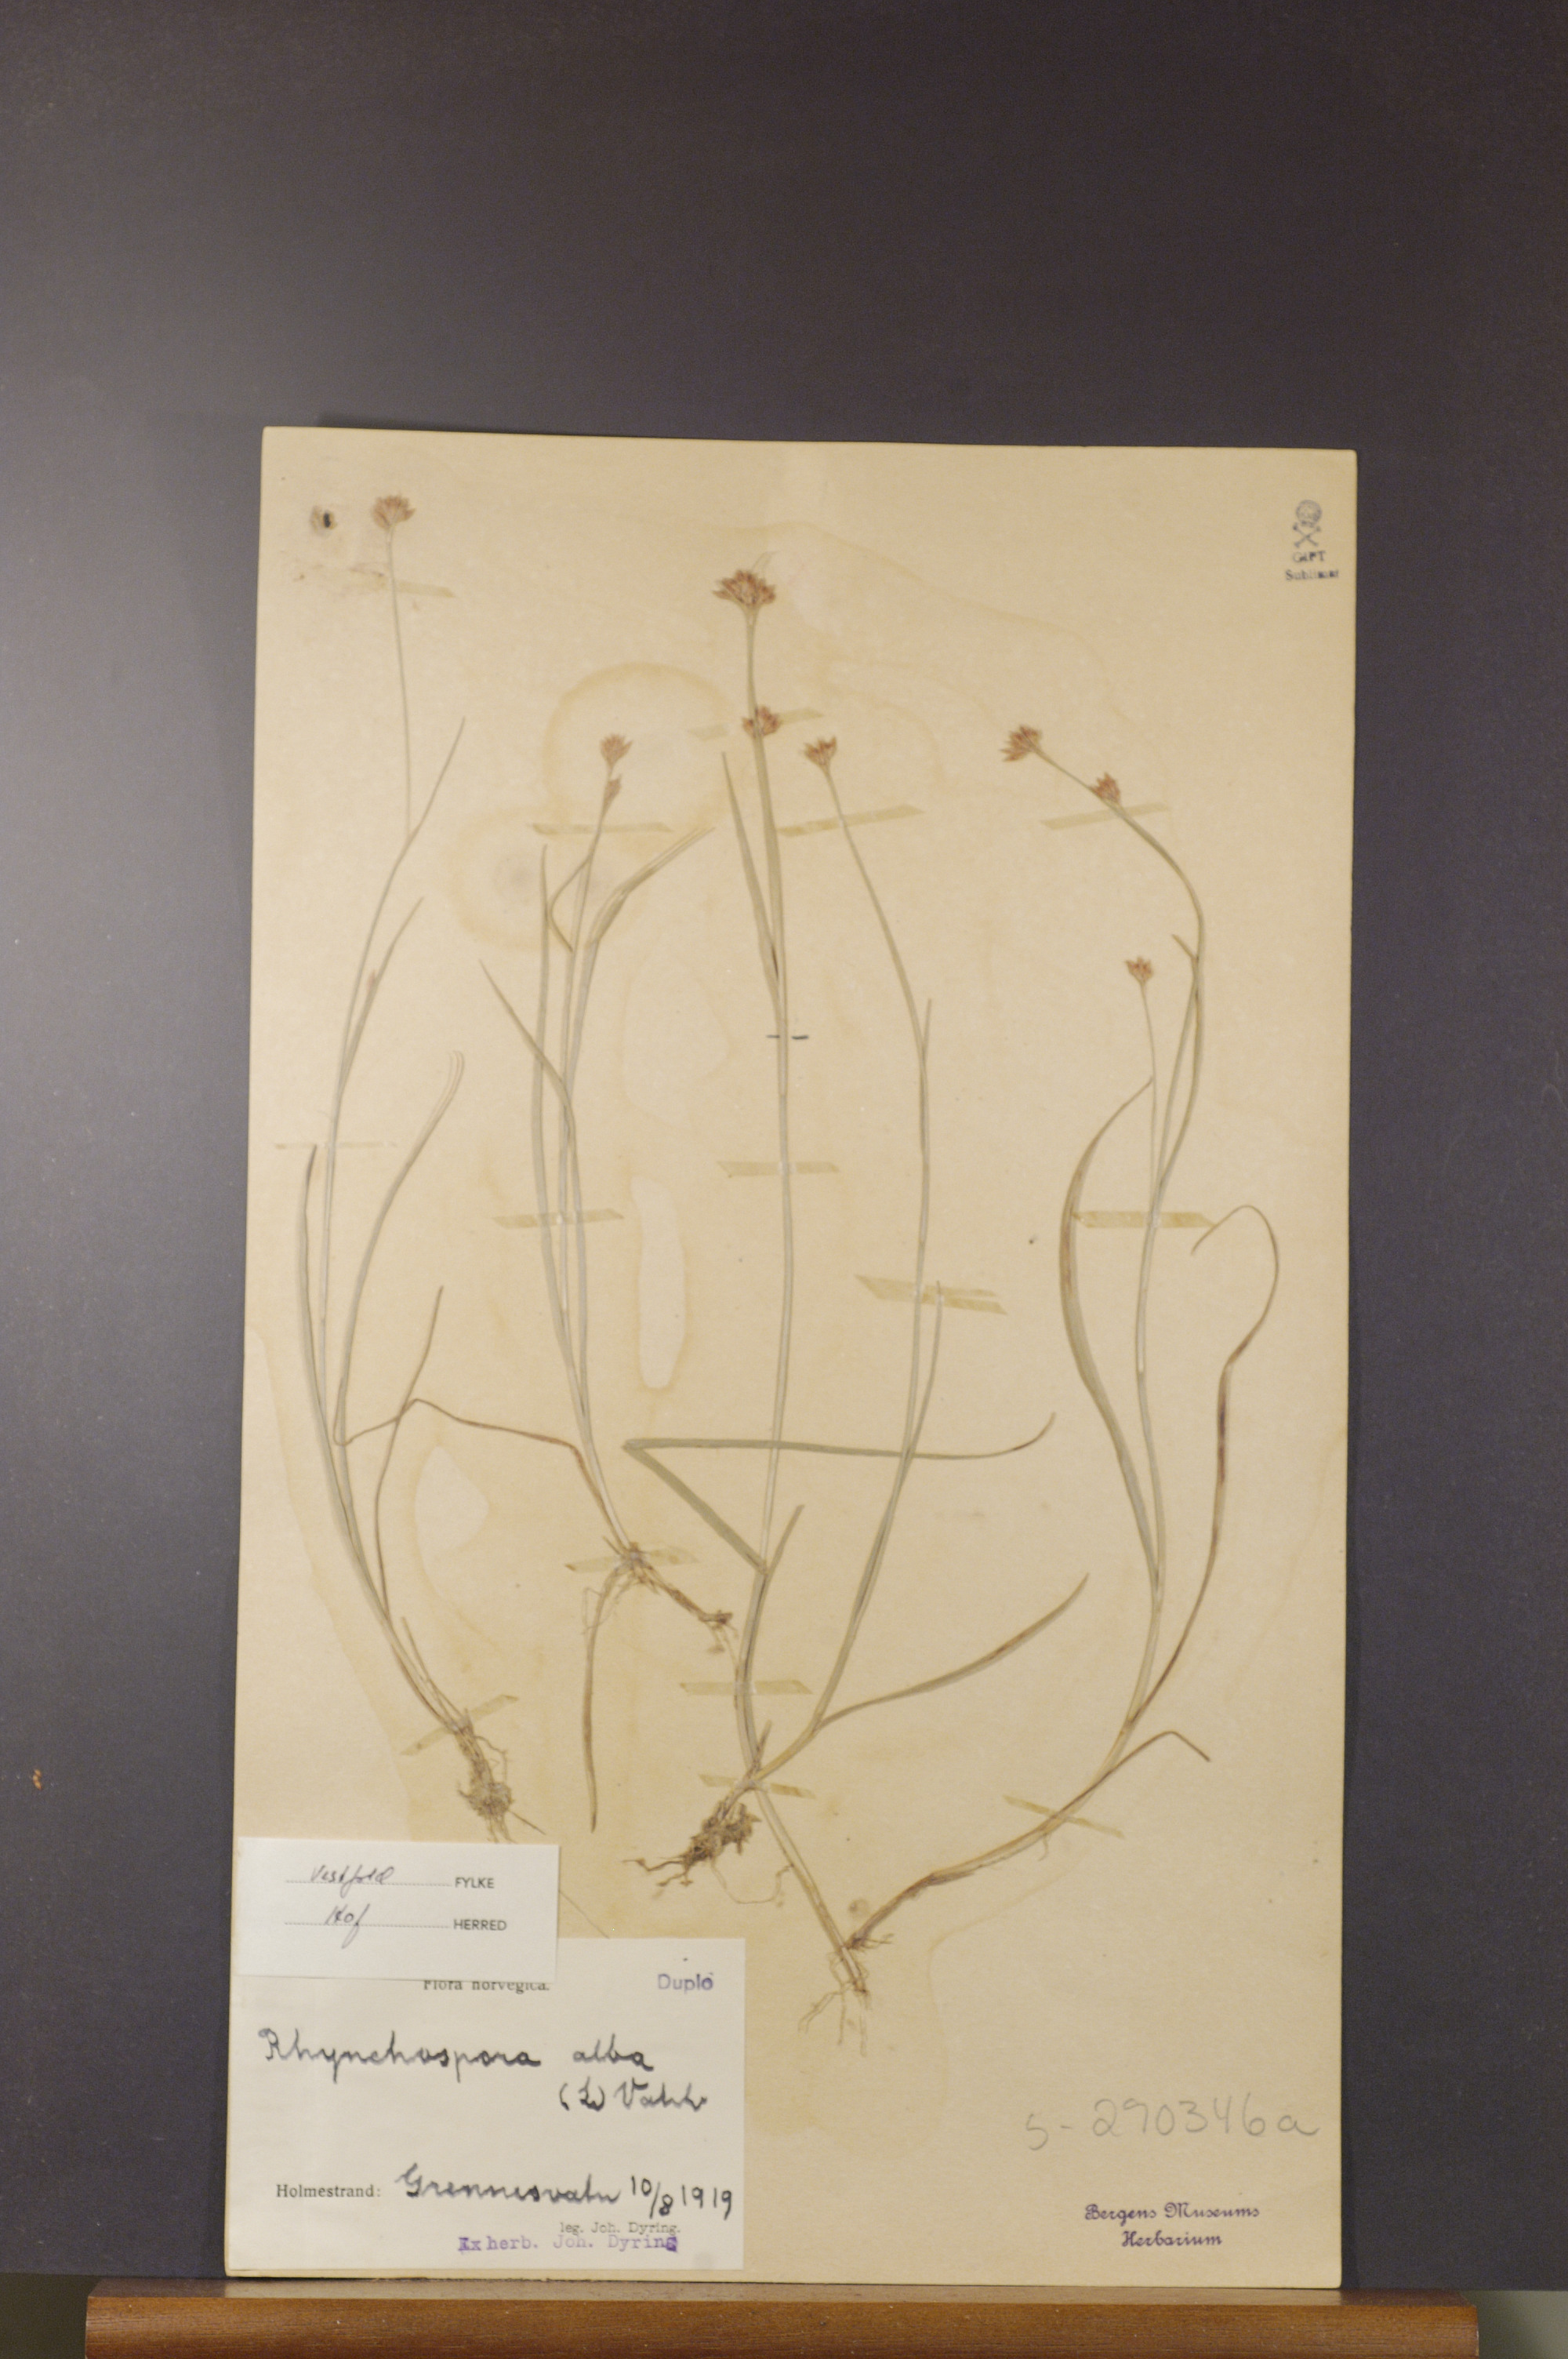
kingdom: Plantae
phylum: Tracheophyta
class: Liliopsida
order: Poales
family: Cyperaceae
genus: Rhynchospora
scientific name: Rhynchospora alba
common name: White beak-sedge
